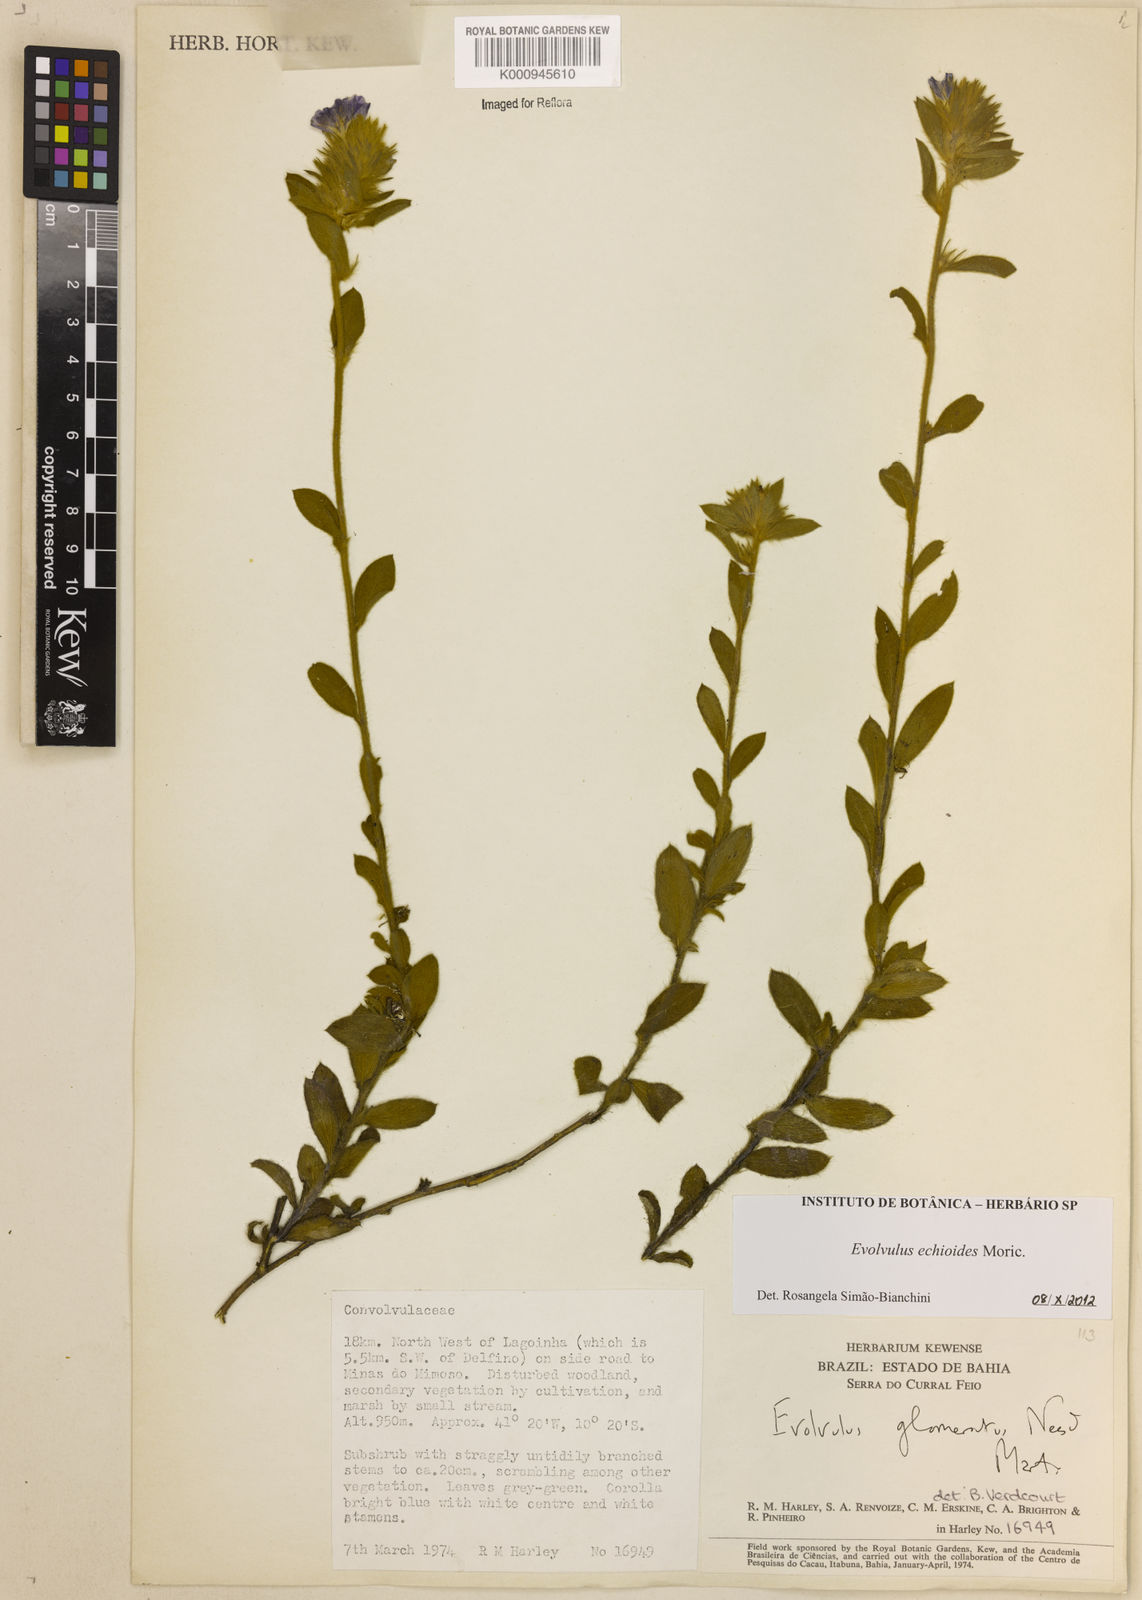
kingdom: Plantae
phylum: Tracheophyta
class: Magnoliopsida
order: Solanales
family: Convolvulaceae
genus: Evolvulus
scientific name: Evolvulus echioides
